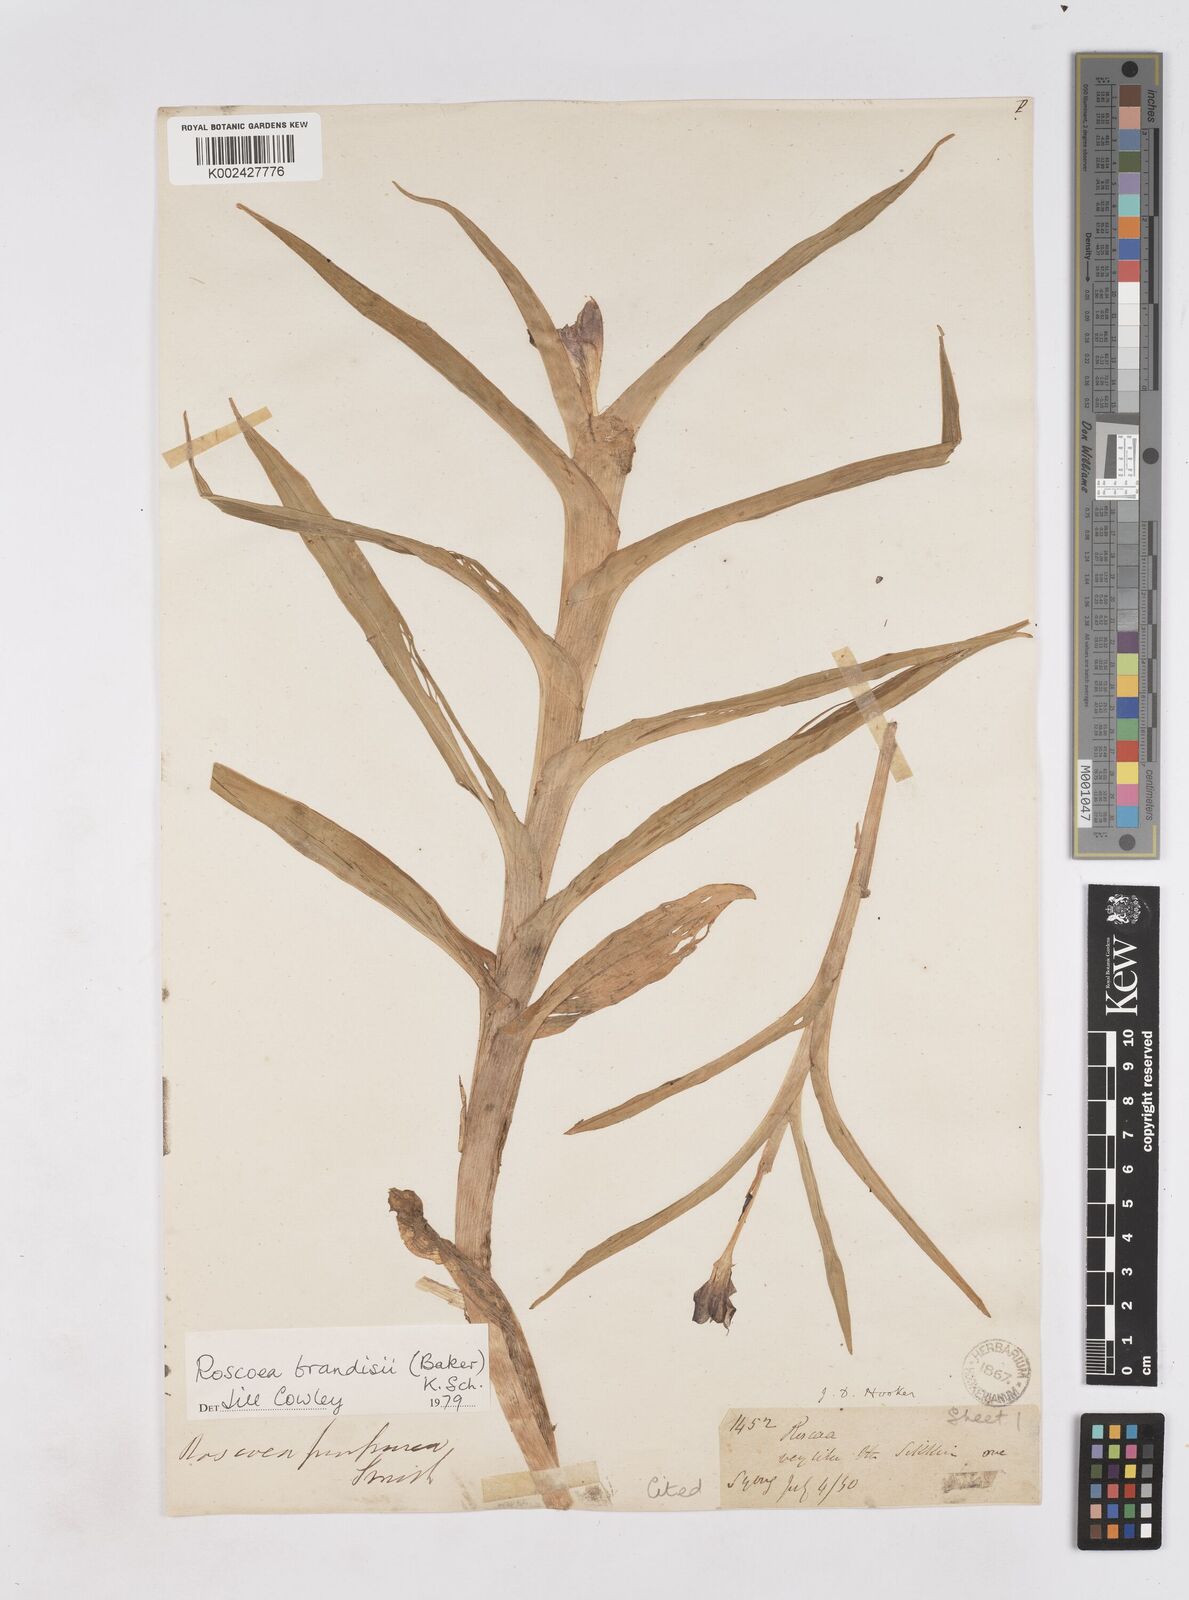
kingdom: Plantae
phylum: Tracheophyta
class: Liliopsida
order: Zingiberales
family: Zingiberaceae
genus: Roscoea
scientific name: Roscoea brandisii
